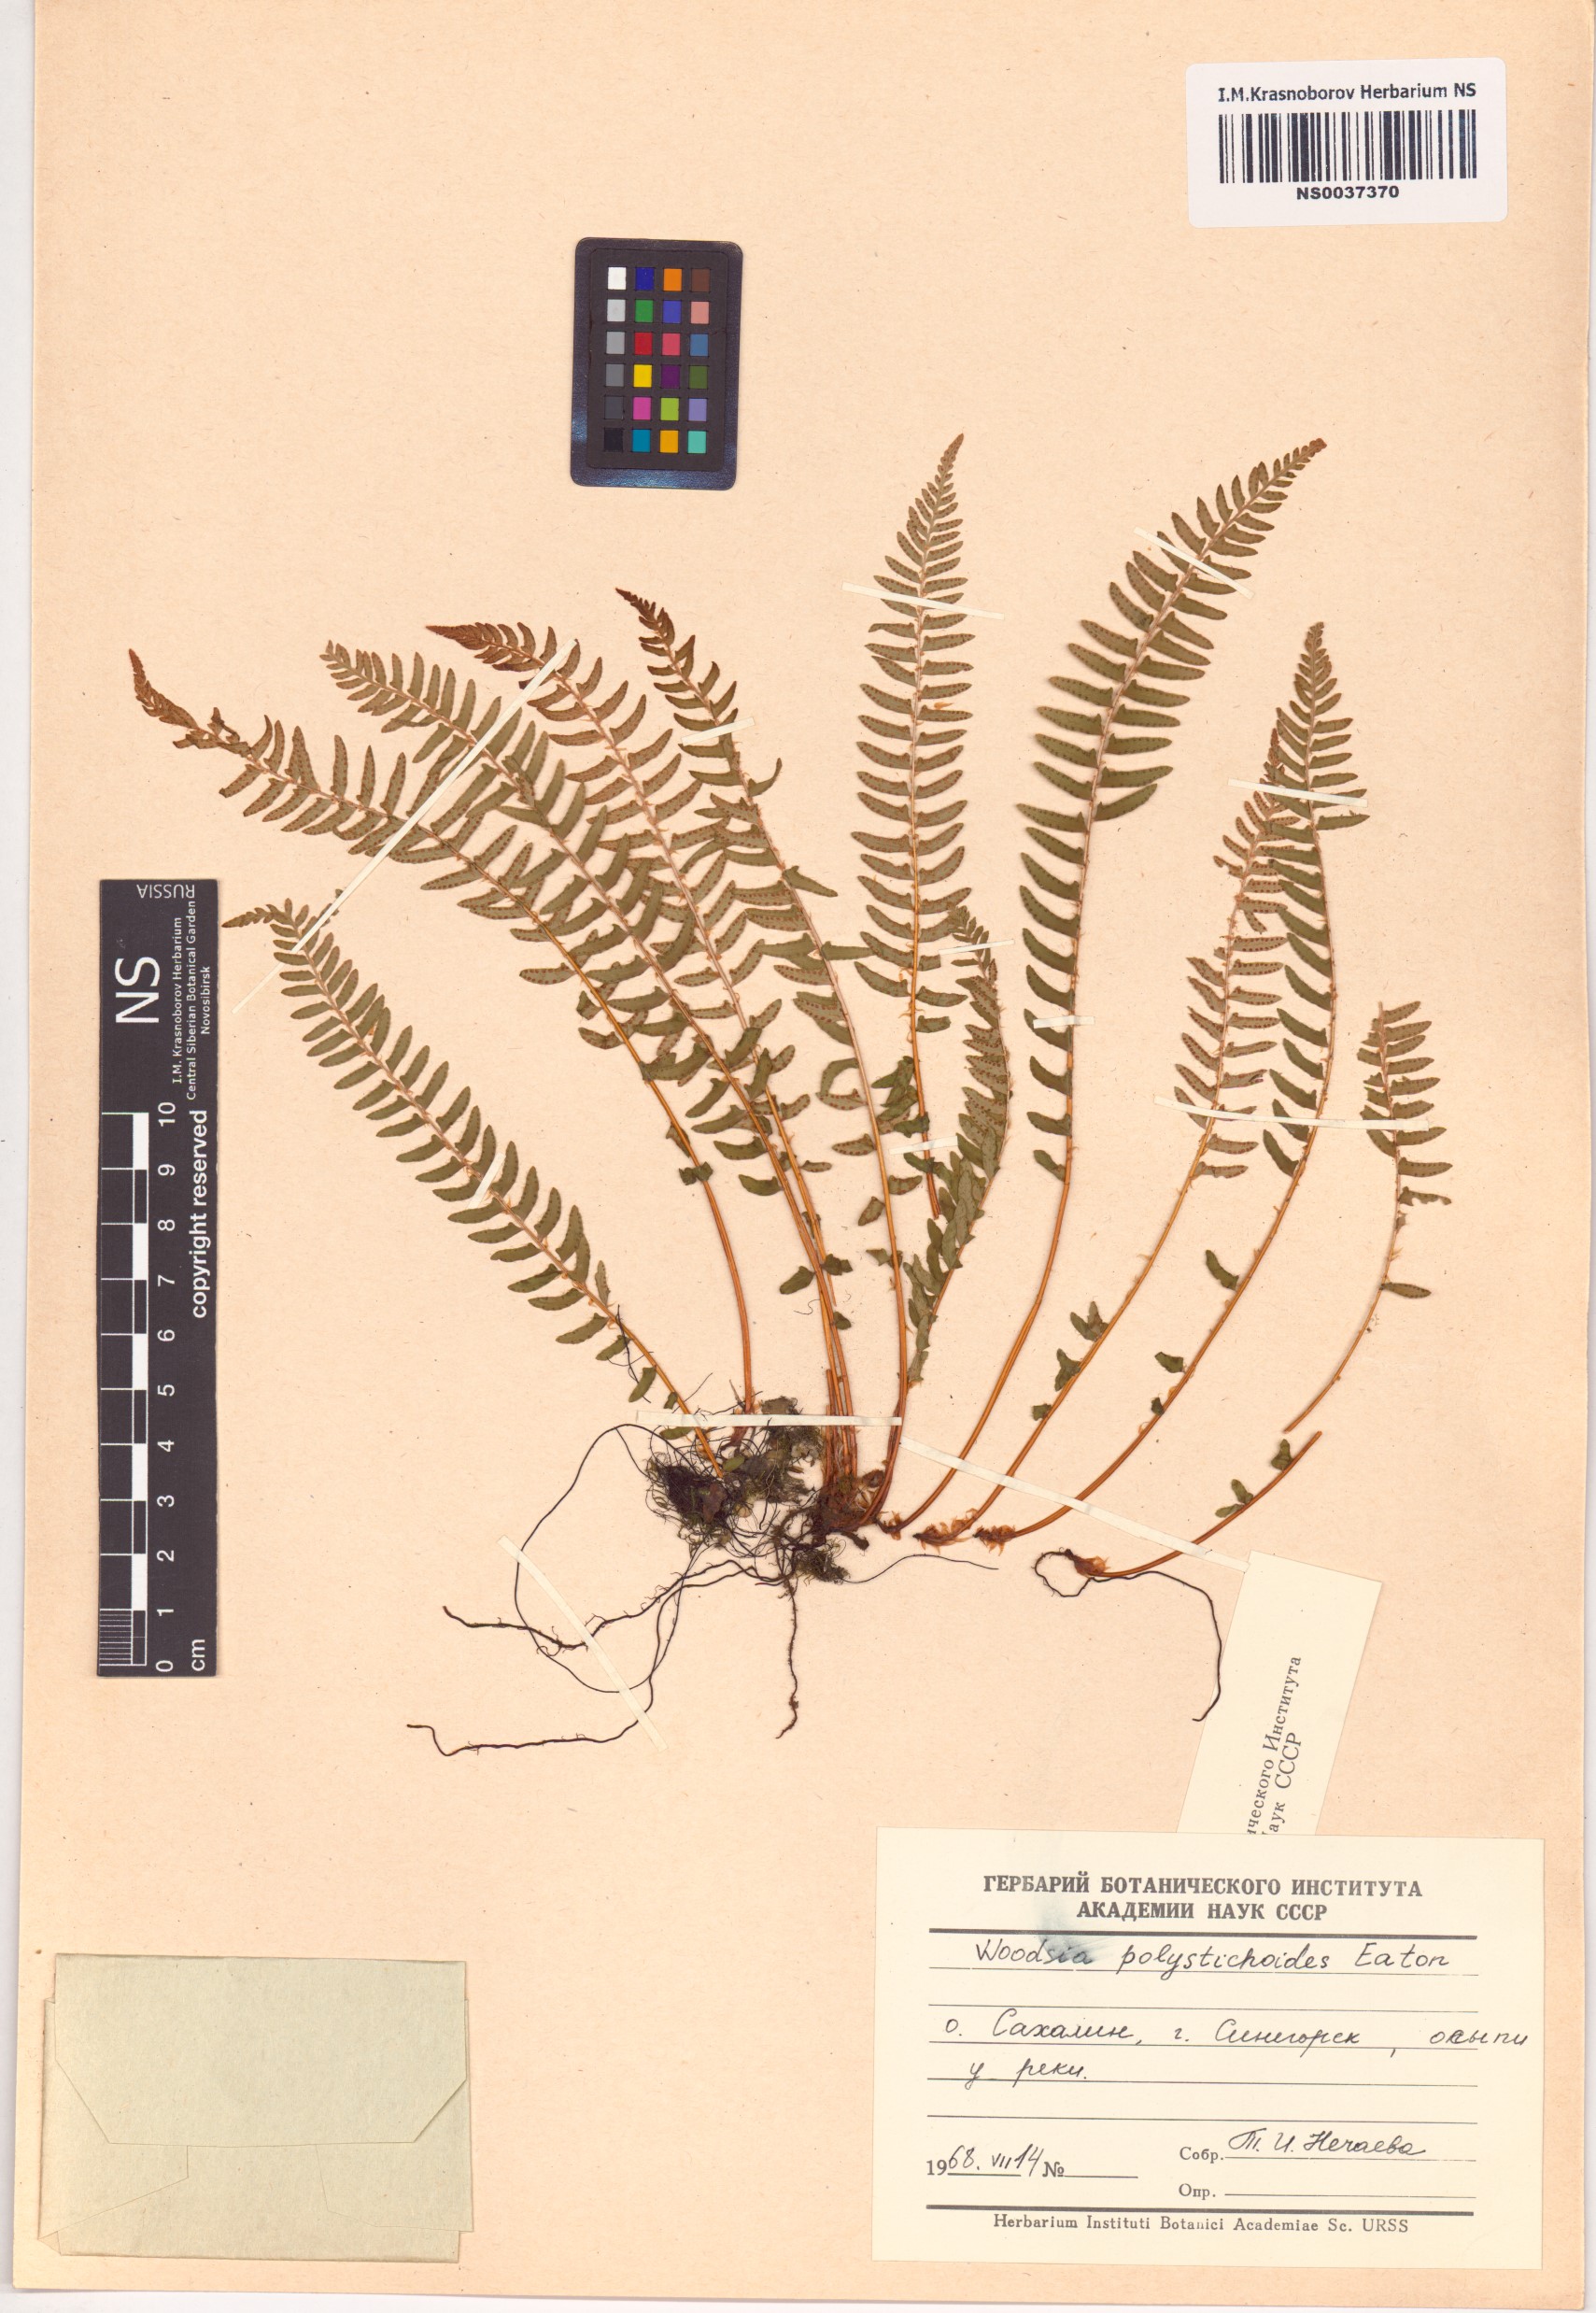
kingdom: Plantae
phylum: Tracheophyta
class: Polypodiopsida
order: Polypodiales
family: Woodsiaceae
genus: Woodsia
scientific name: Woodsia polystichoides
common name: Holly fern woodsia
